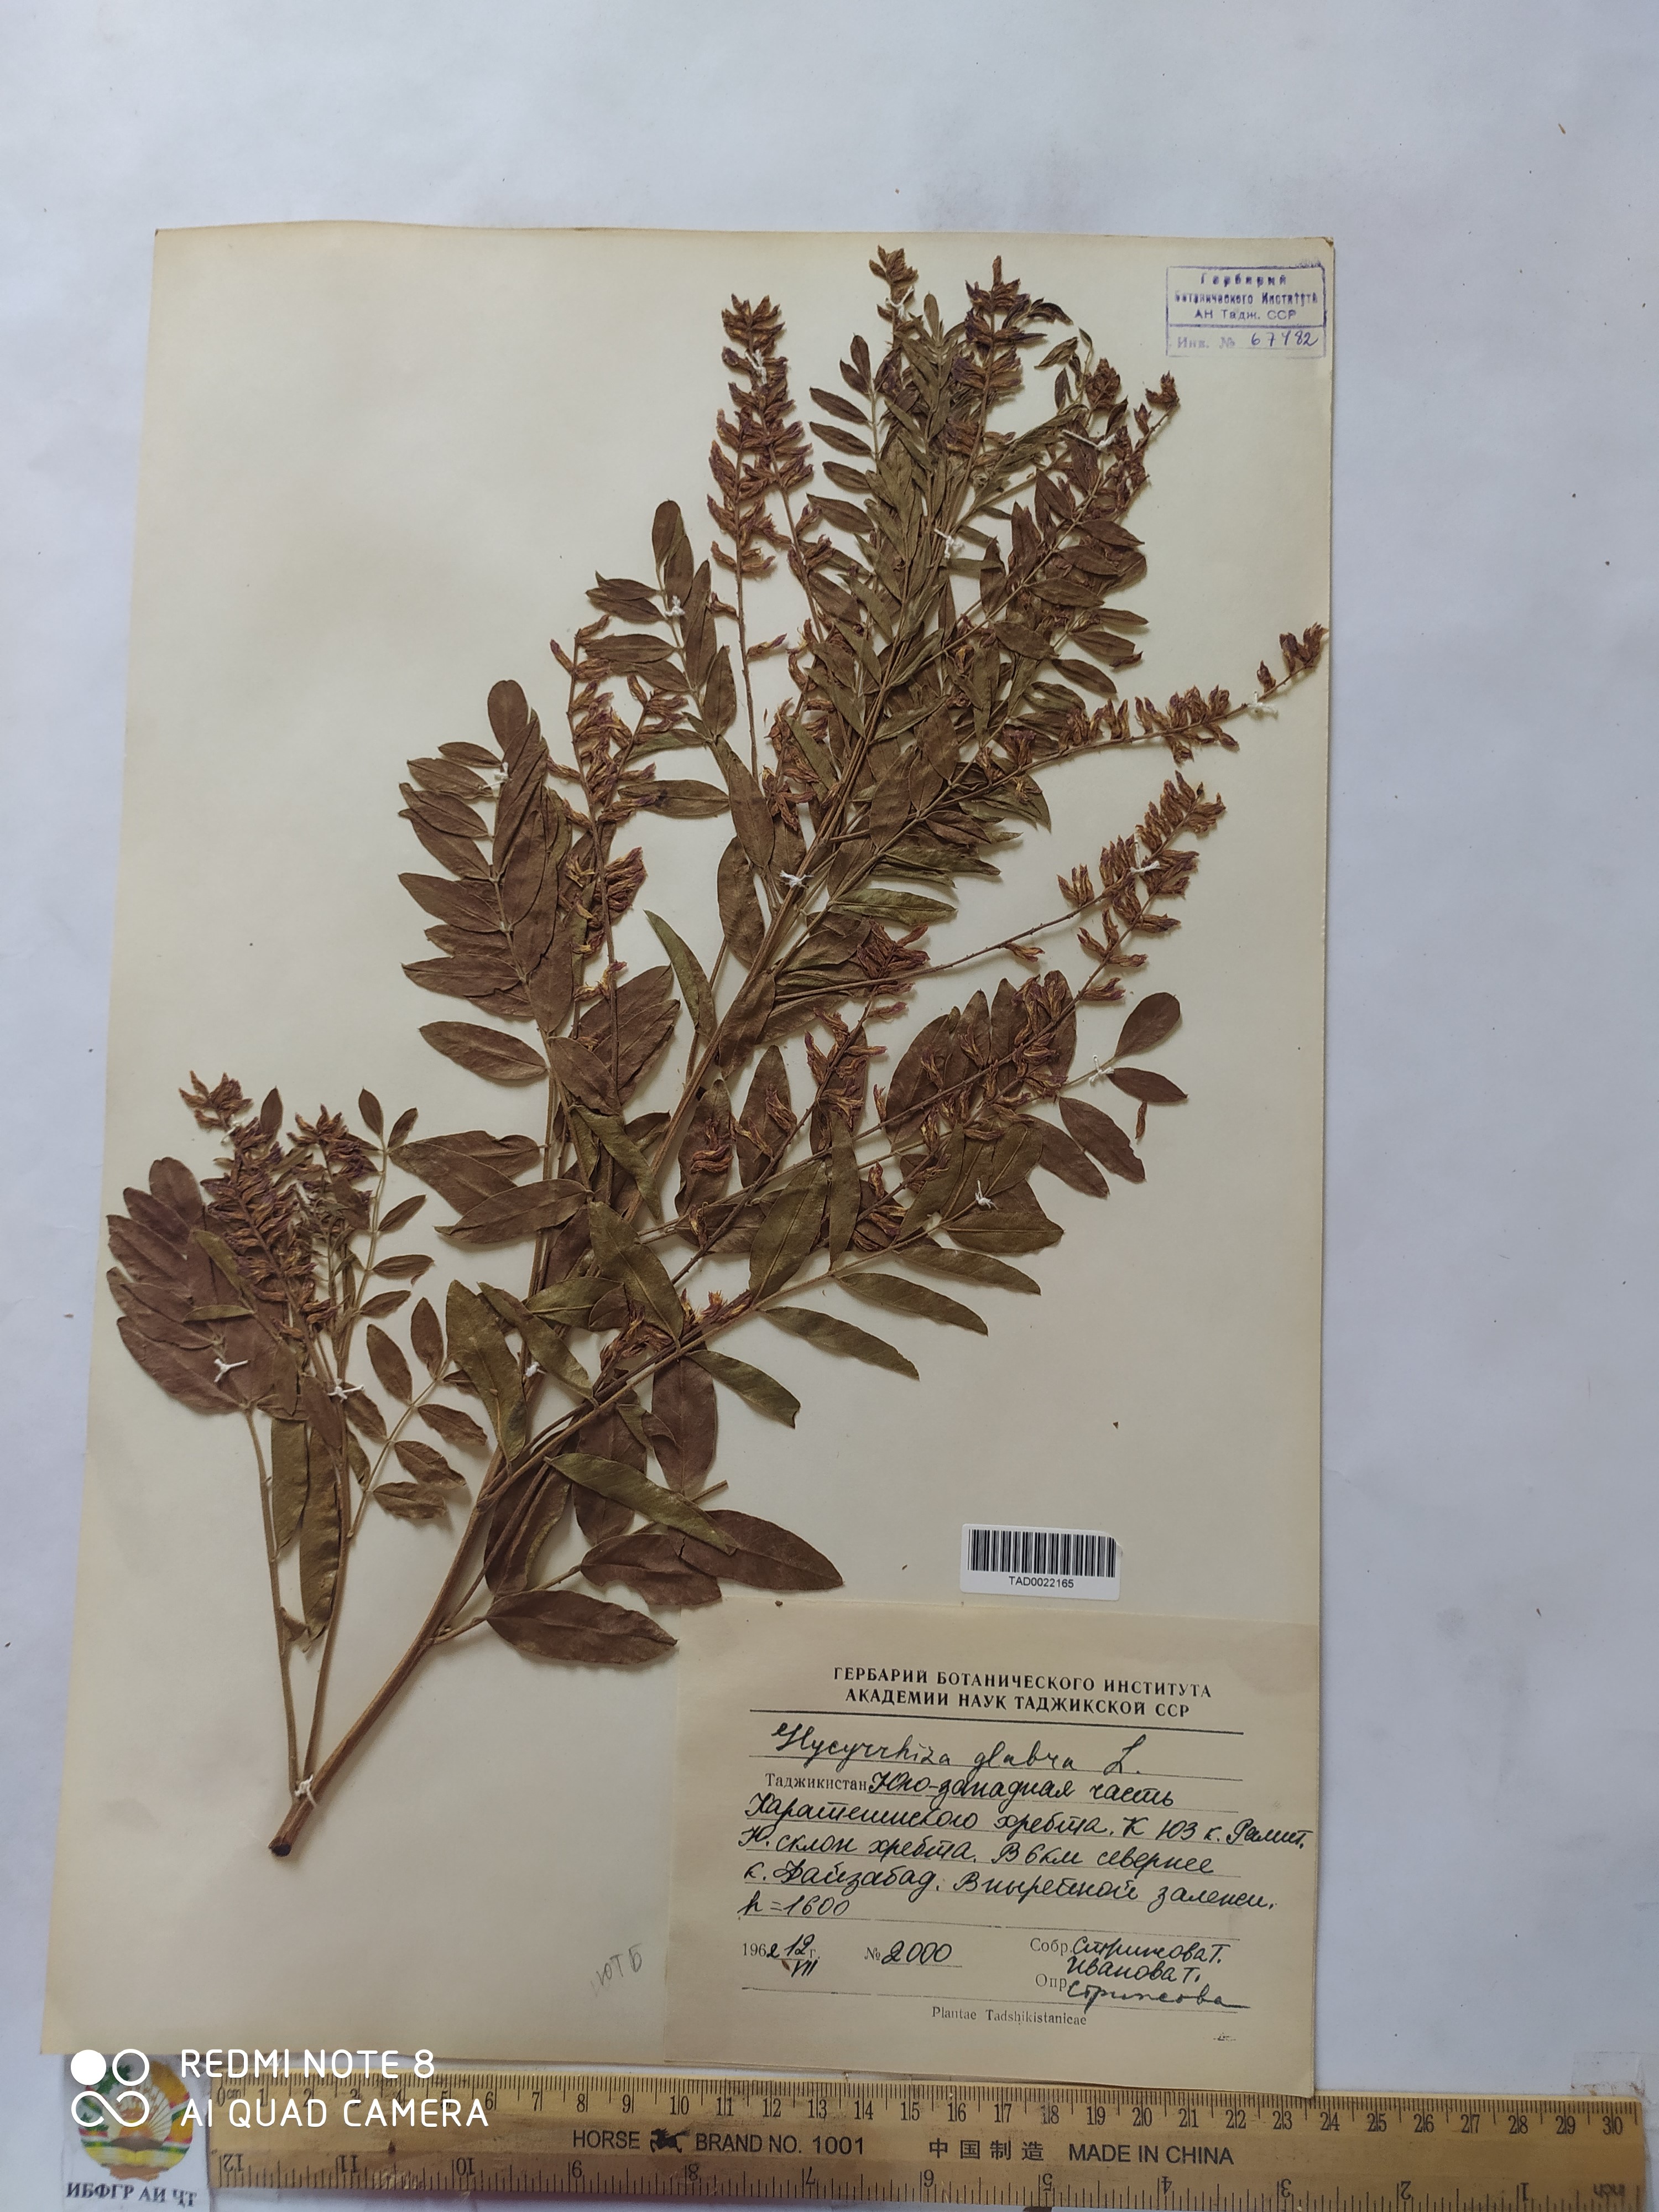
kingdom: Plantae
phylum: Tracheophyta
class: Magnoliopsida
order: Fabales
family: Fabaceae
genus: Glycyrrhiza
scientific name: Glycyrrhiza glabra
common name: Liquorice
